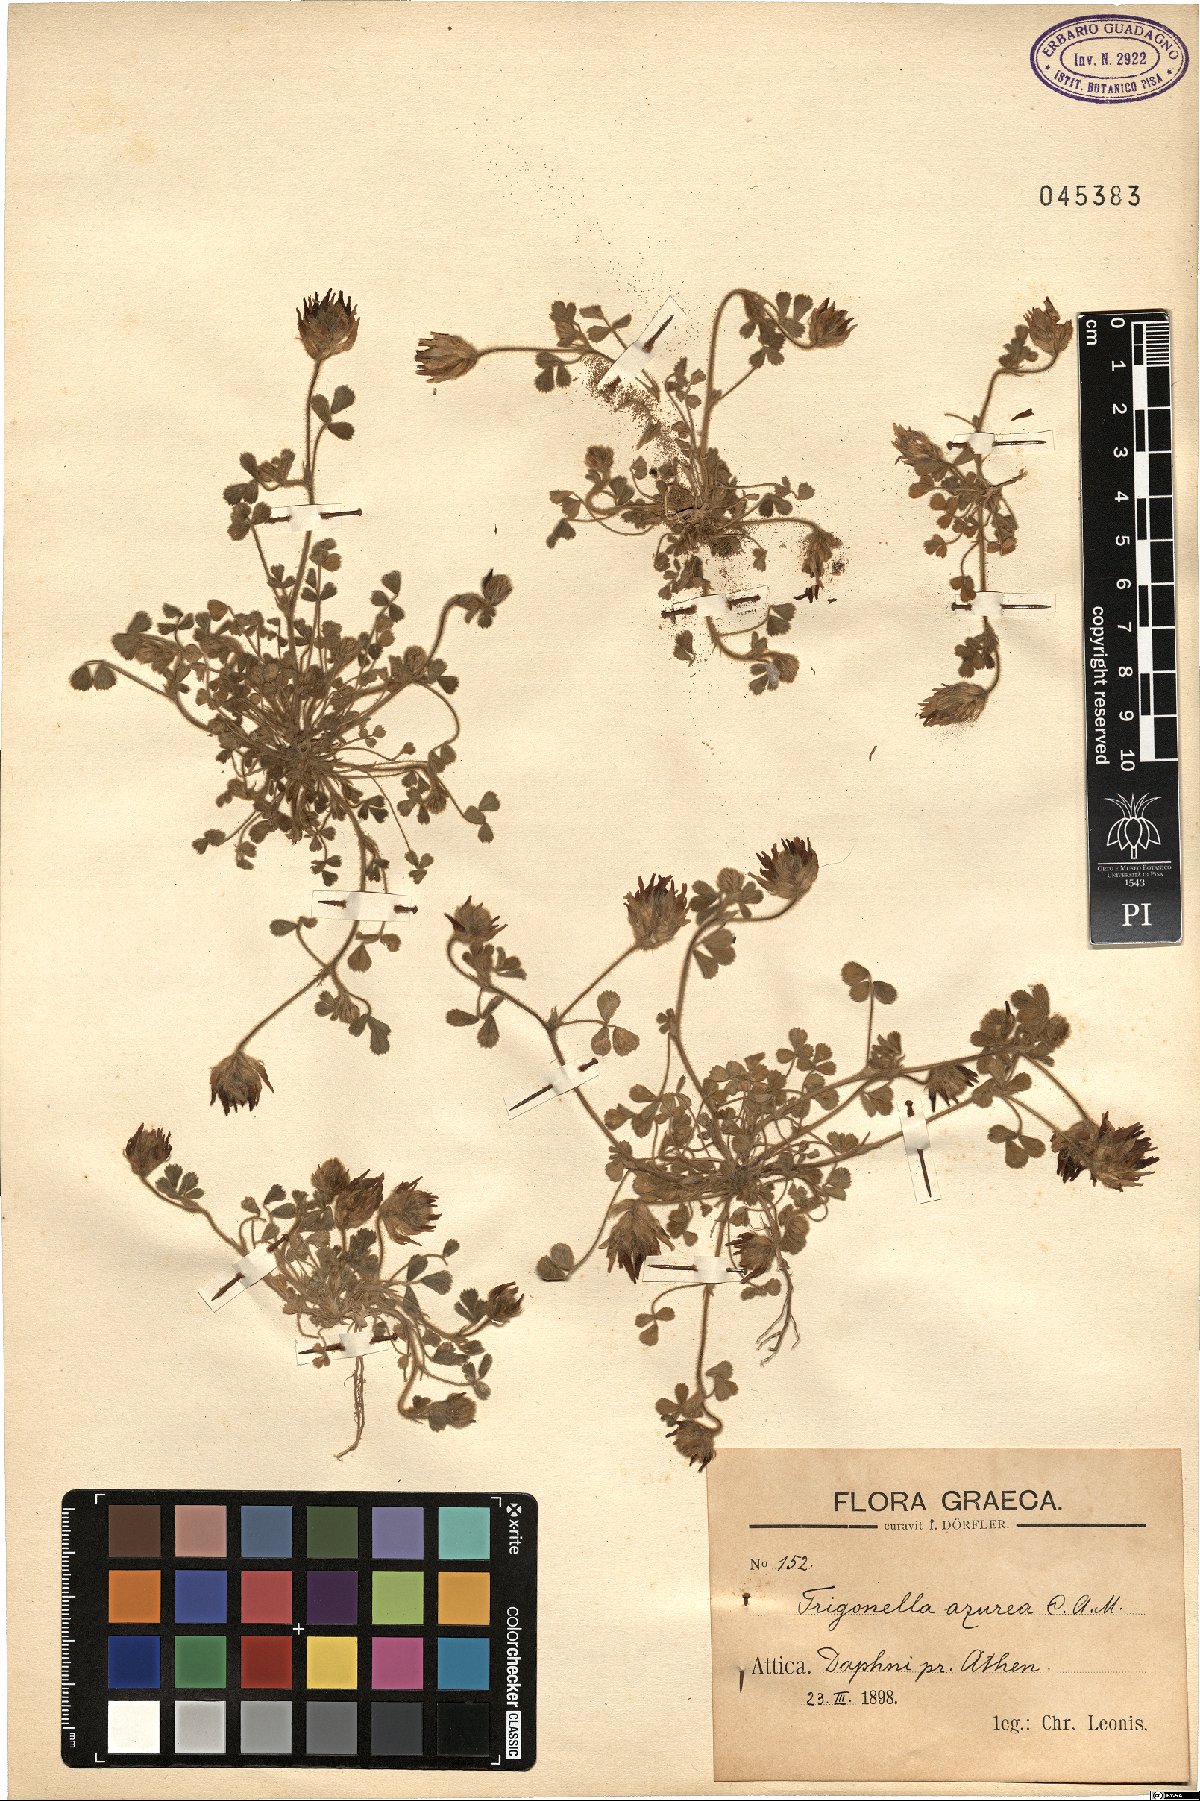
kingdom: Plantae
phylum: Tracheophyta
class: Magnoliopsida
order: Fabales
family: Fabaceae
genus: Trigonella
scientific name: Trigonella coerulescens
